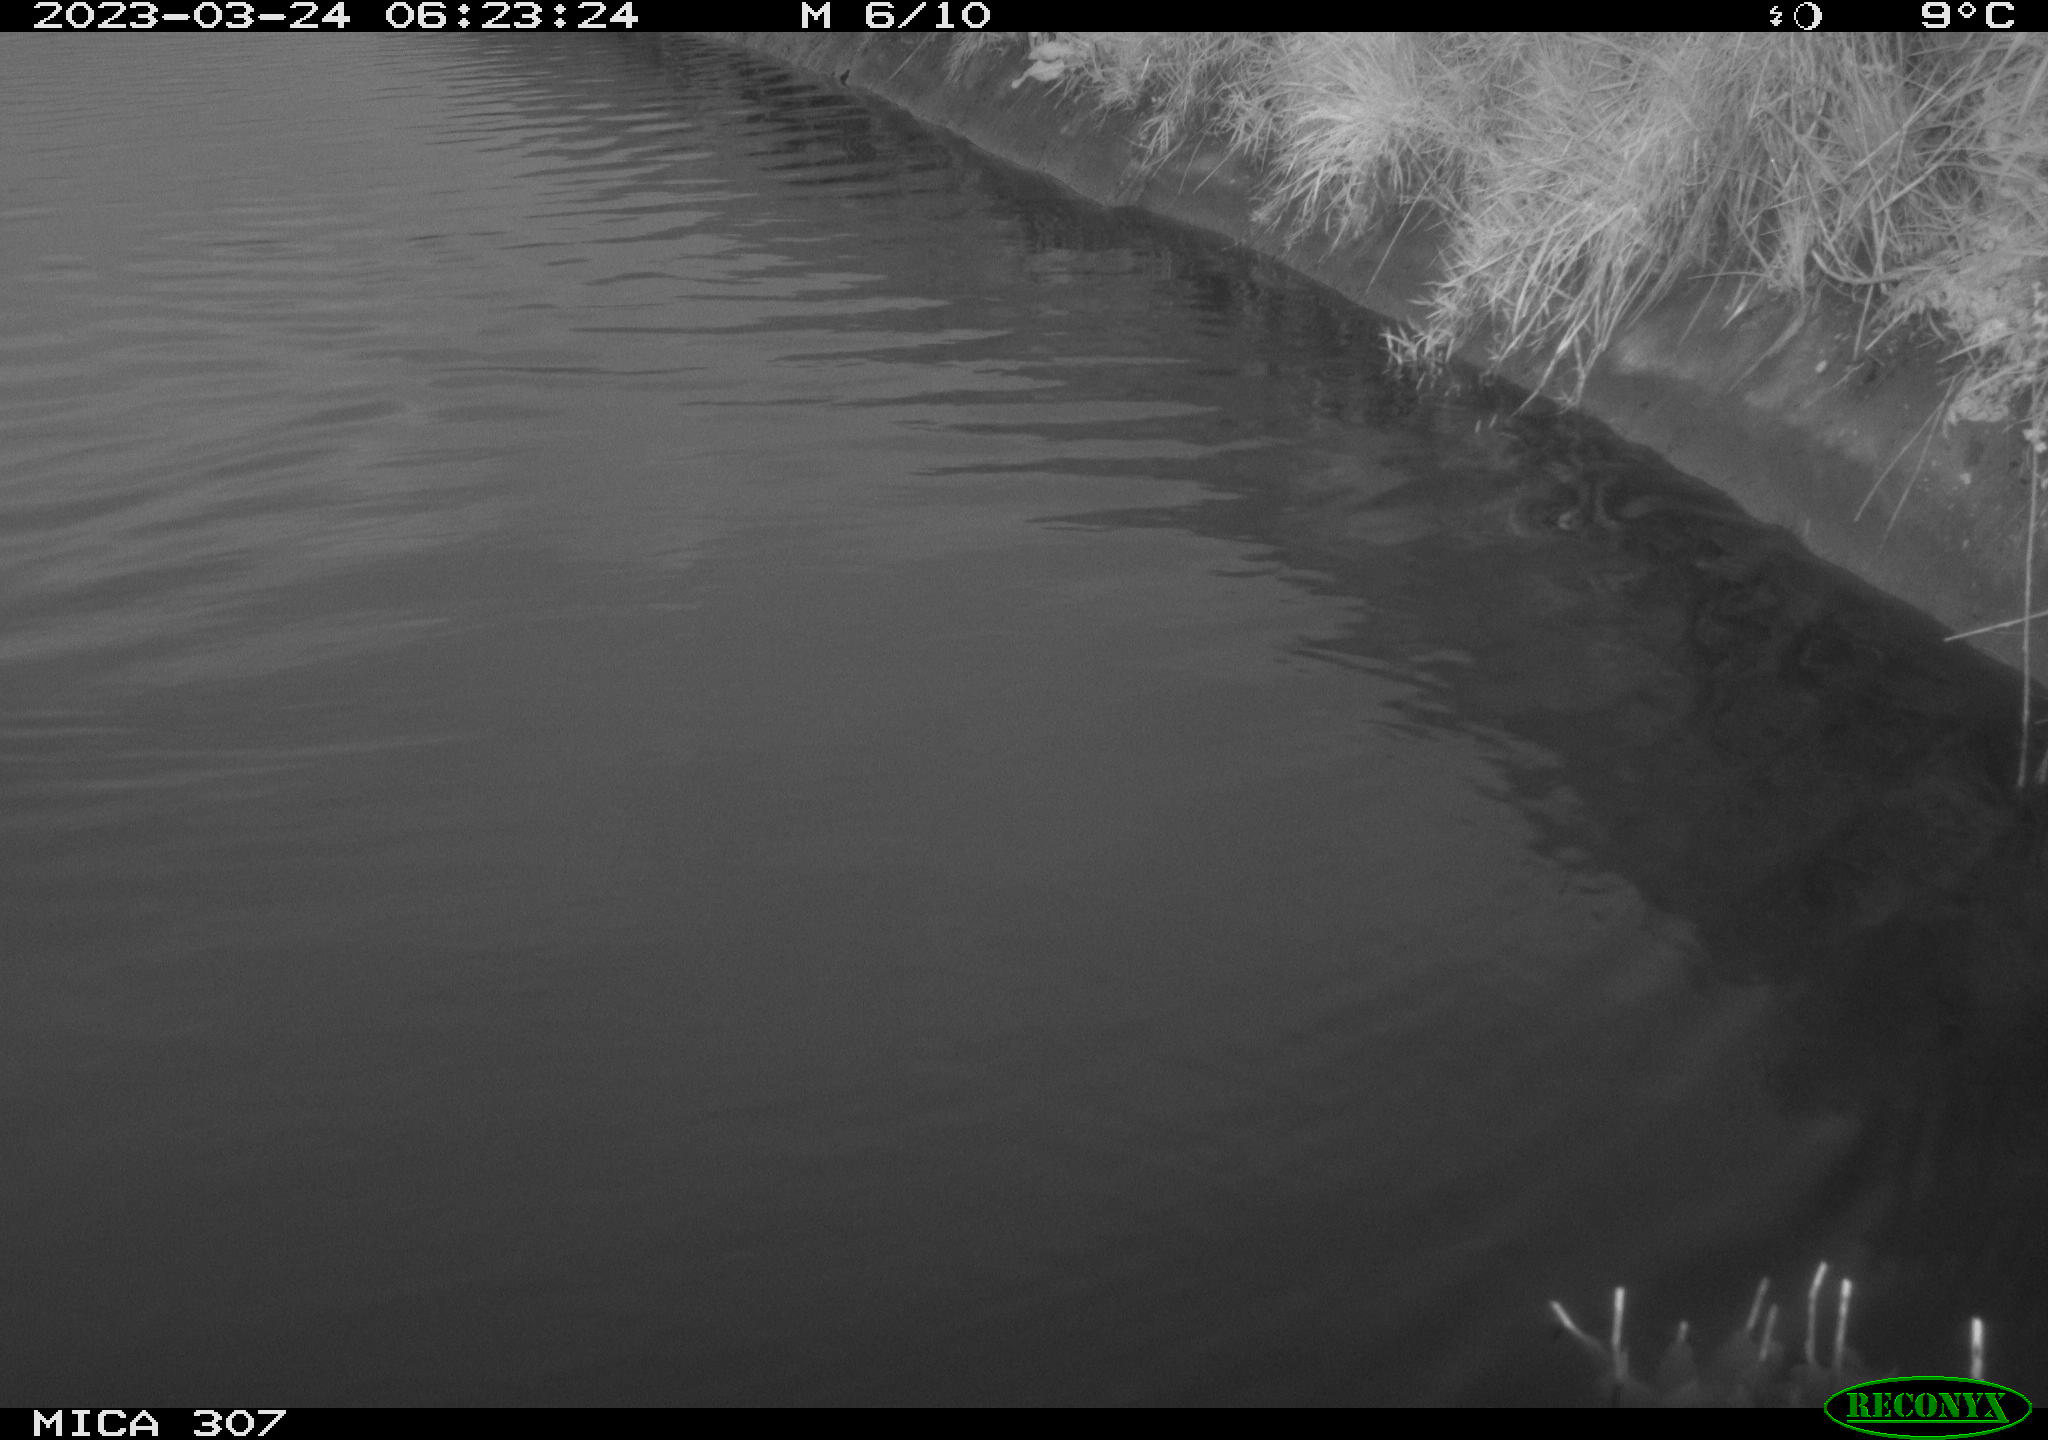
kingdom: Animalia
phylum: Chordata
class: Aves
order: Anseriformes
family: Anatidae
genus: Anas
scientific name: Anas
